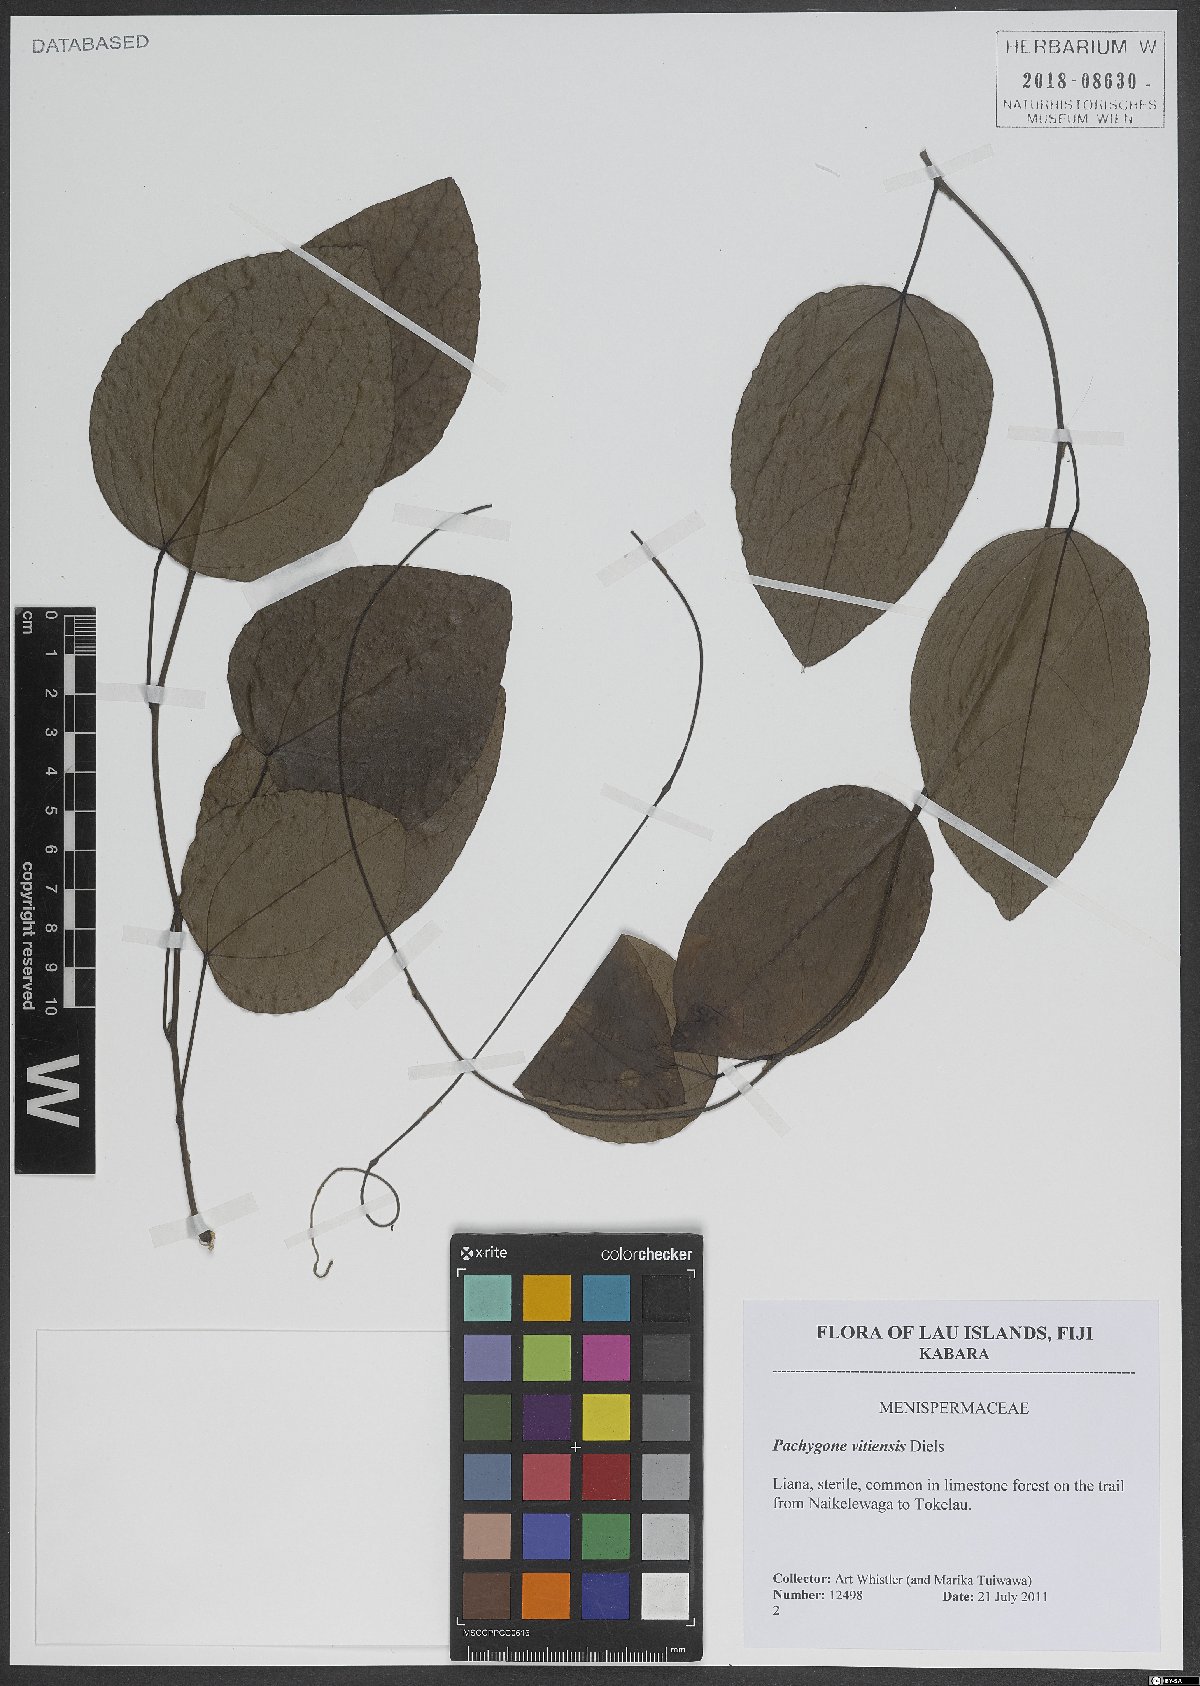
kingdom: Plantae
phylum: Tracheophyta
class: Magnoliopsida
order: Ranunculales
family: Menispermaceae
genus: Pachygone
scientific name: Pachygone vitiensis
